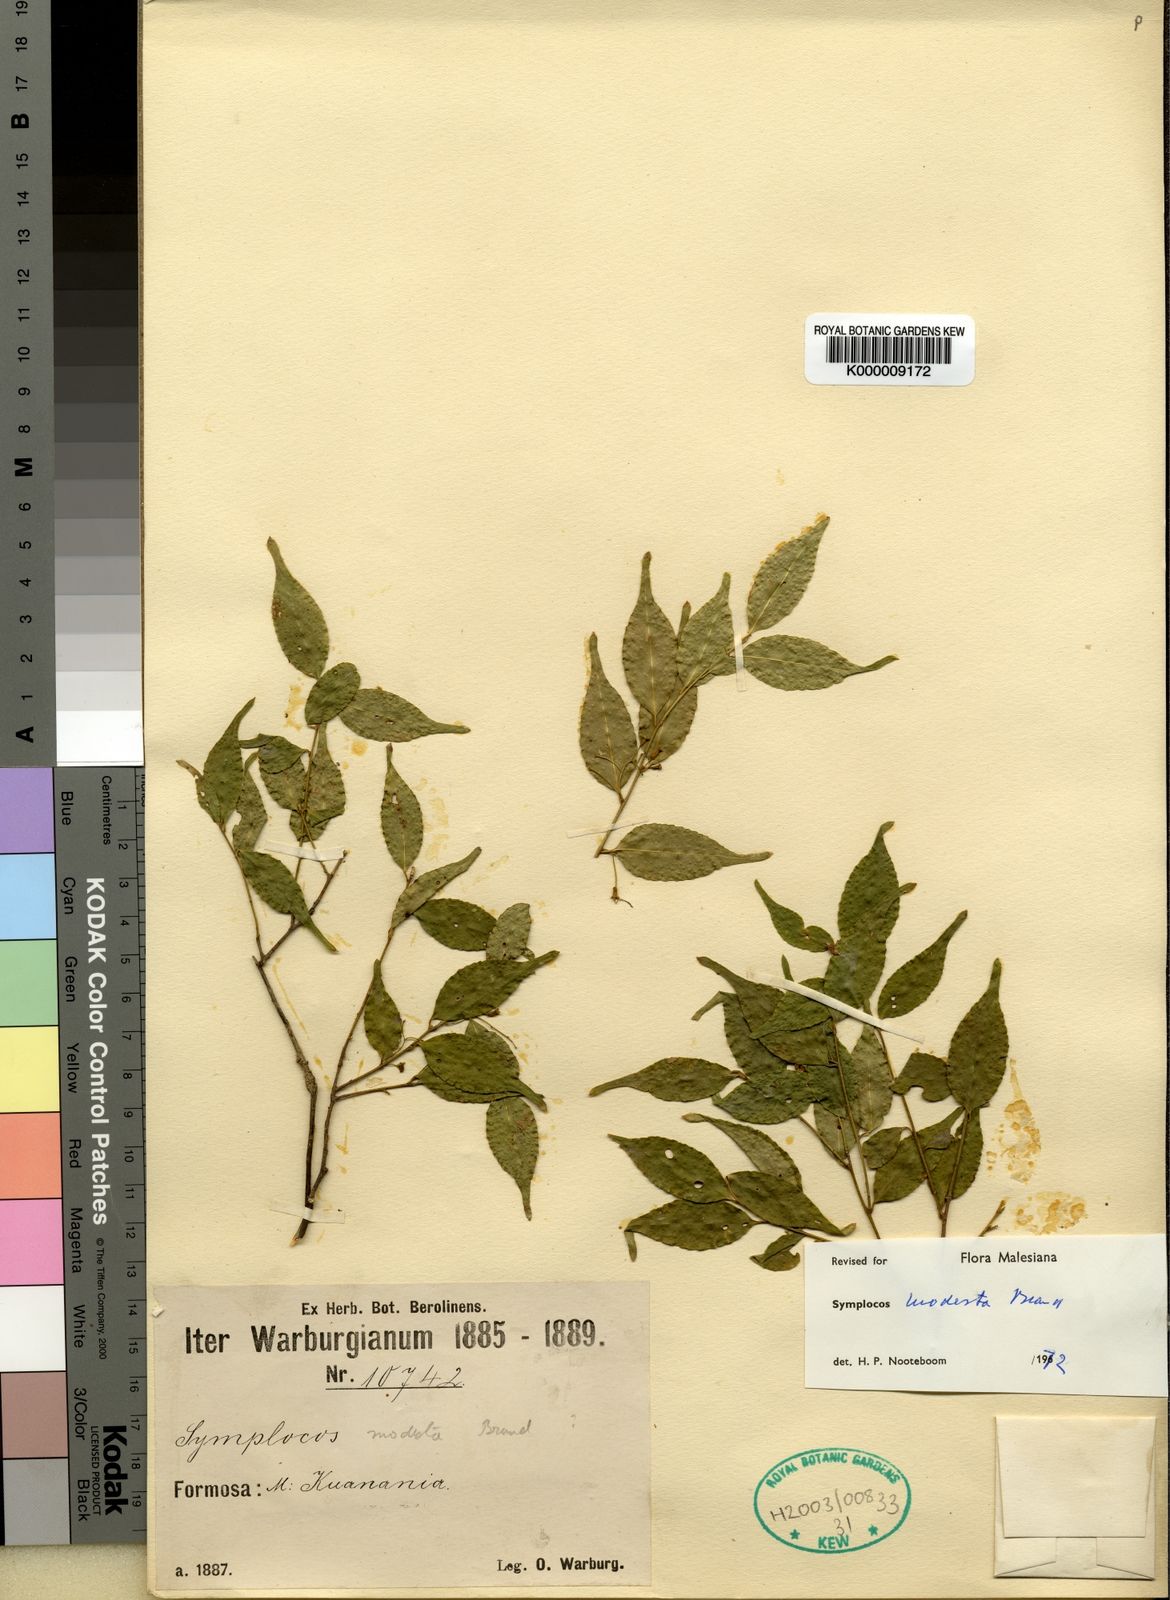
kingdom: Plantae
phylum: Tracheophyta
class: Magnoliopsida
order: Ericales
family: Symplocaceae
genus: Symplocos
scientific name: Symplocos sumuntia
